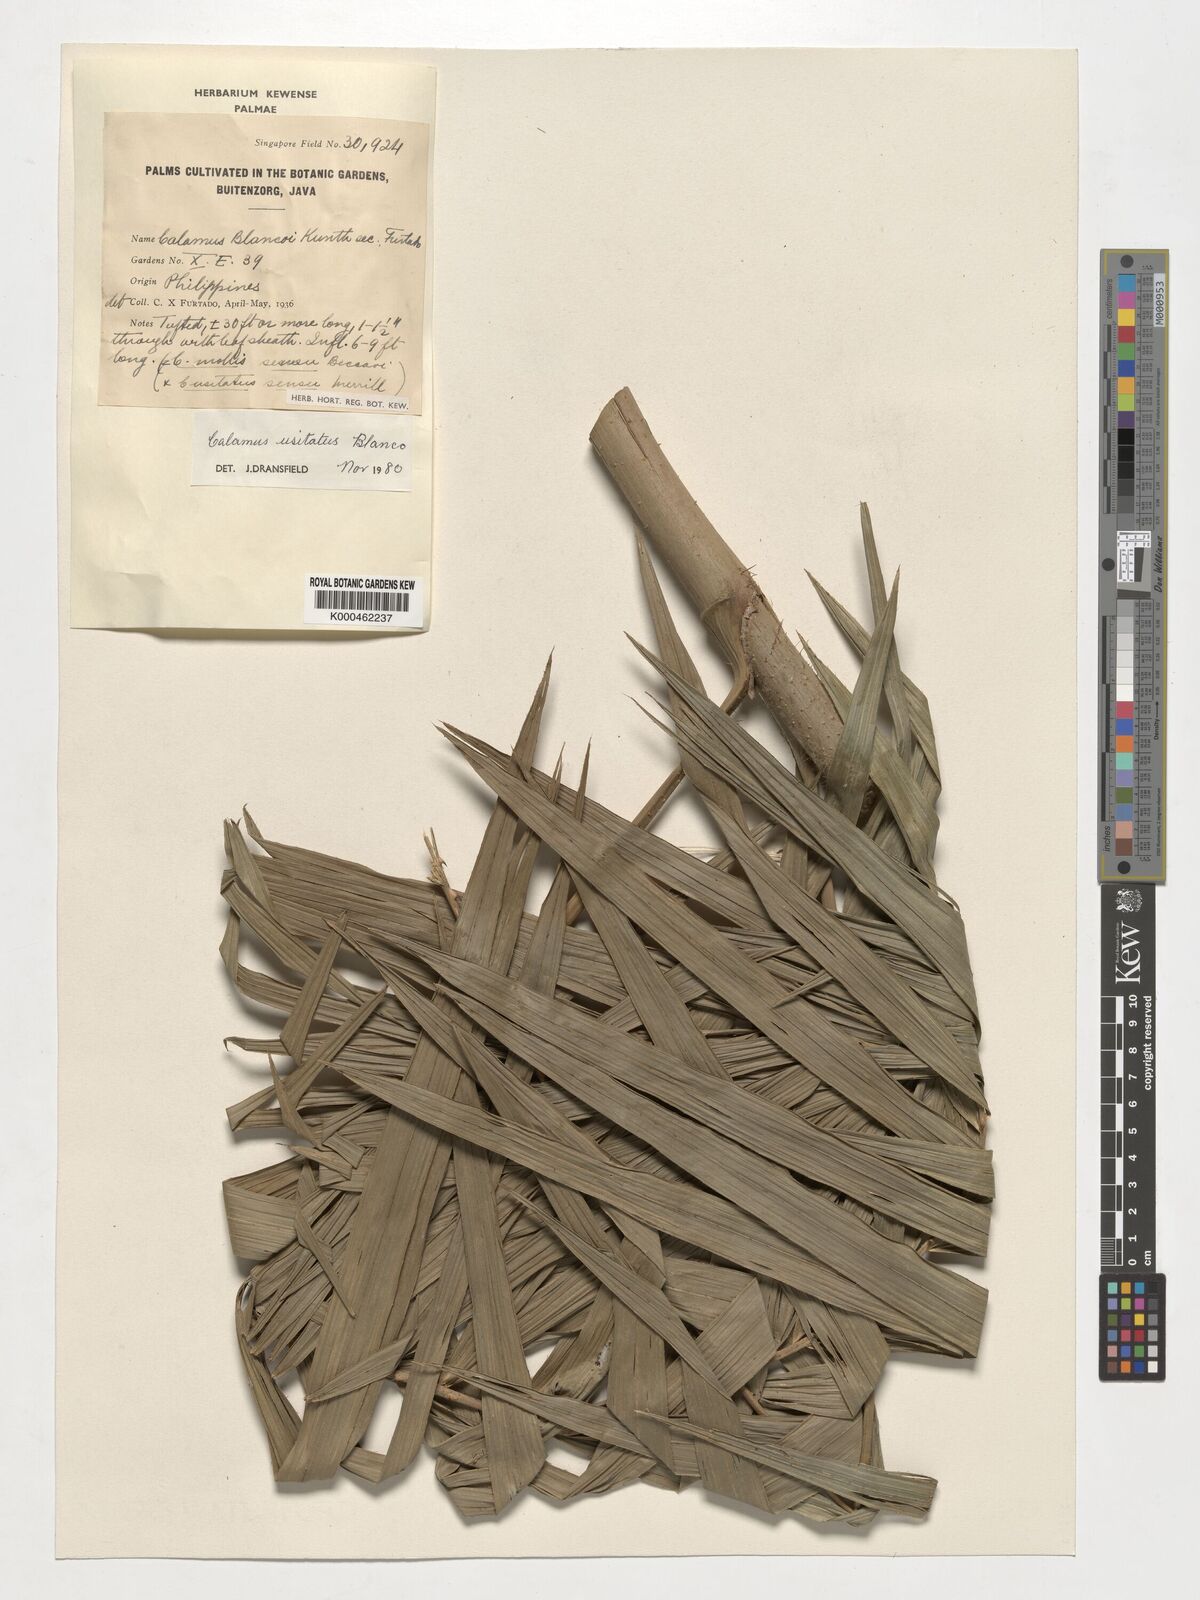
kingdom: Plantae
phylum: Tracheophyta
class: Liliopsida
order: Arecales
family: Arecaceae
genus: Calamus
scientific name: Calamus usitatus
